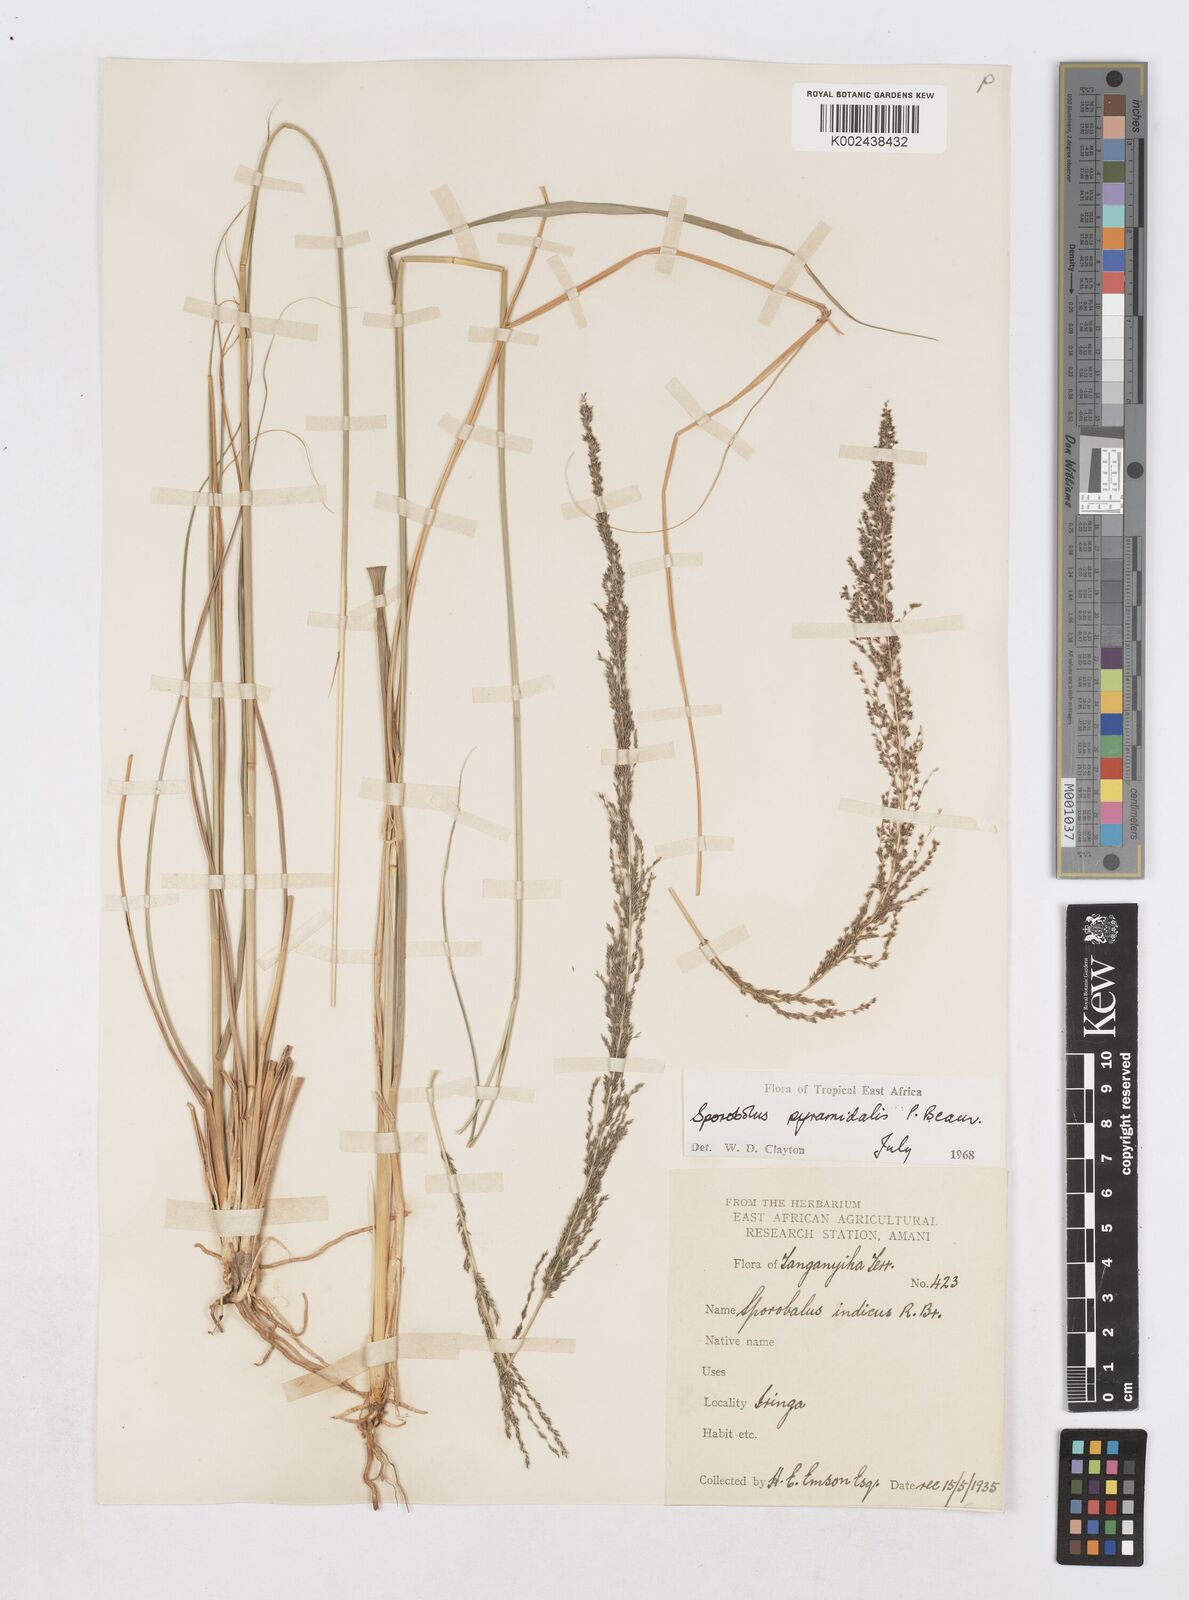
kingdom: Plantae
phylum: Tracheophyta
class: Liliopsida
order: Poales
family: Poaceae
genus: Sporobolus
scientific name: Sporobolus pyramidalis
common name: West indian dropseed
